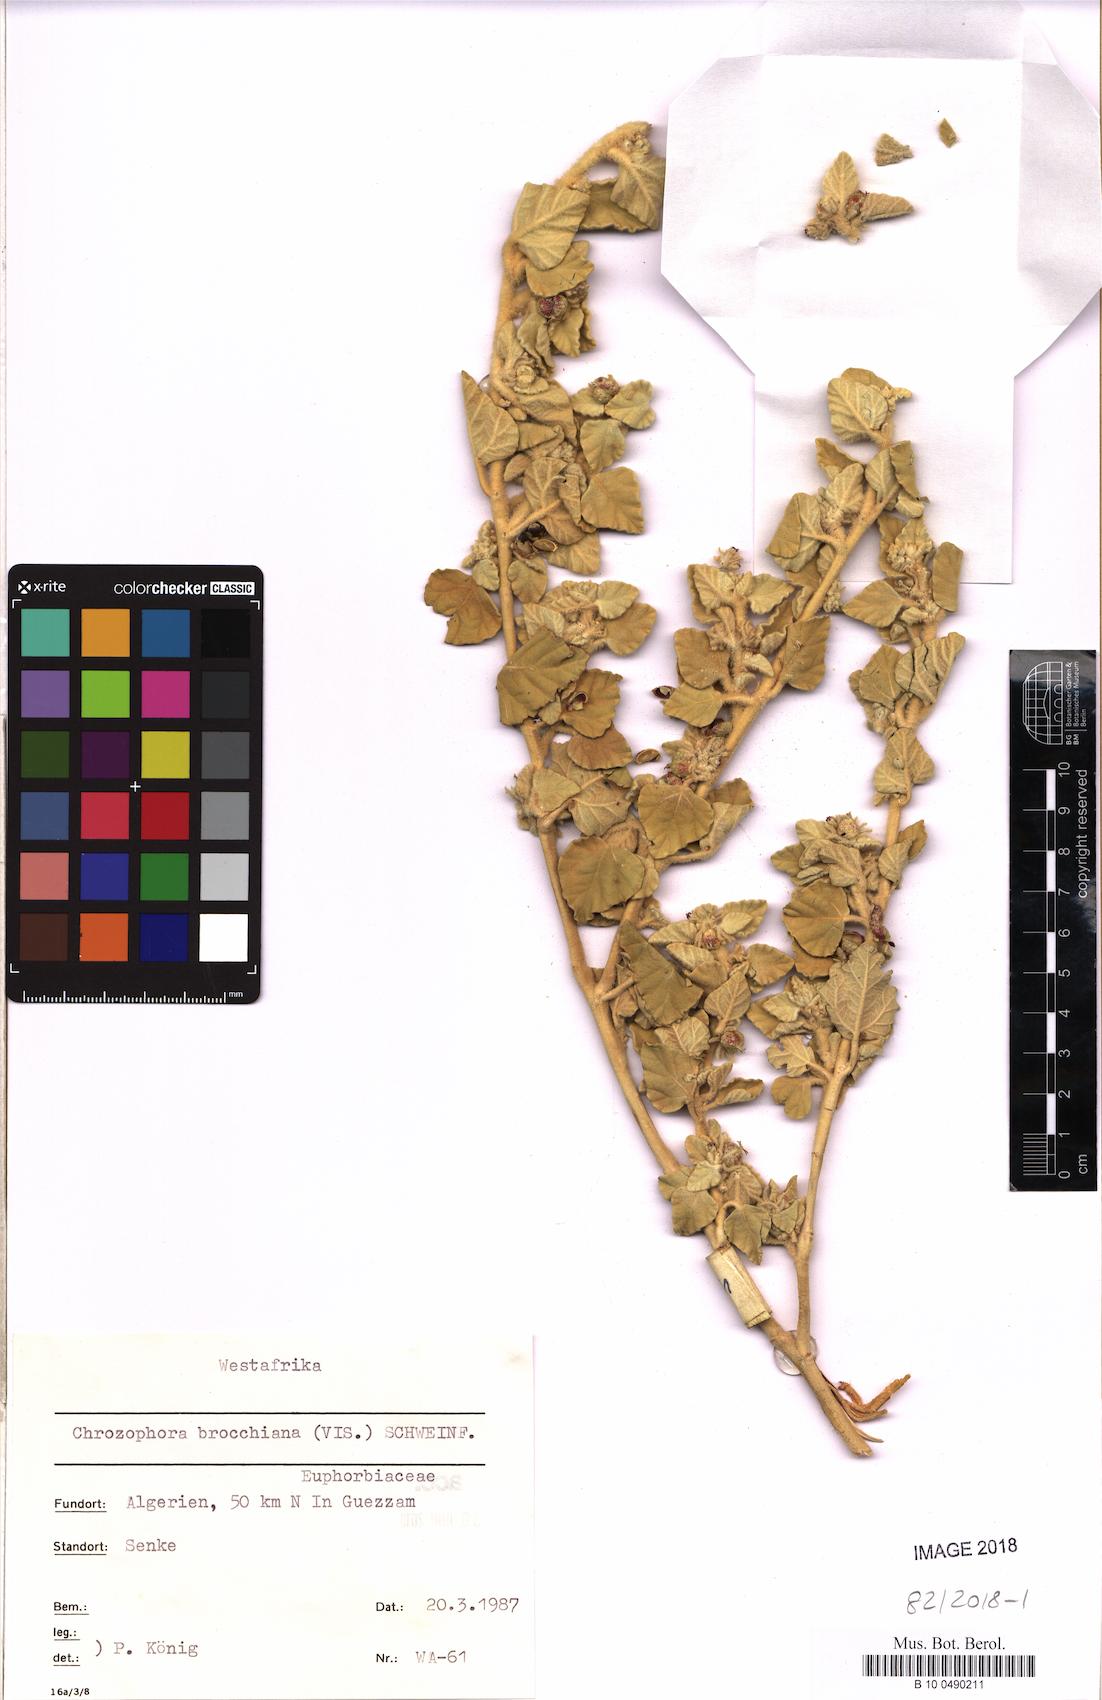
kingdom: Plantae
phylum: Tracheophyta
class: Magnoliopsida
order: Malpighiales
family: Euphorbiaceae
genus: Chrozophora
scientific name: Chrozophora brocchiana
